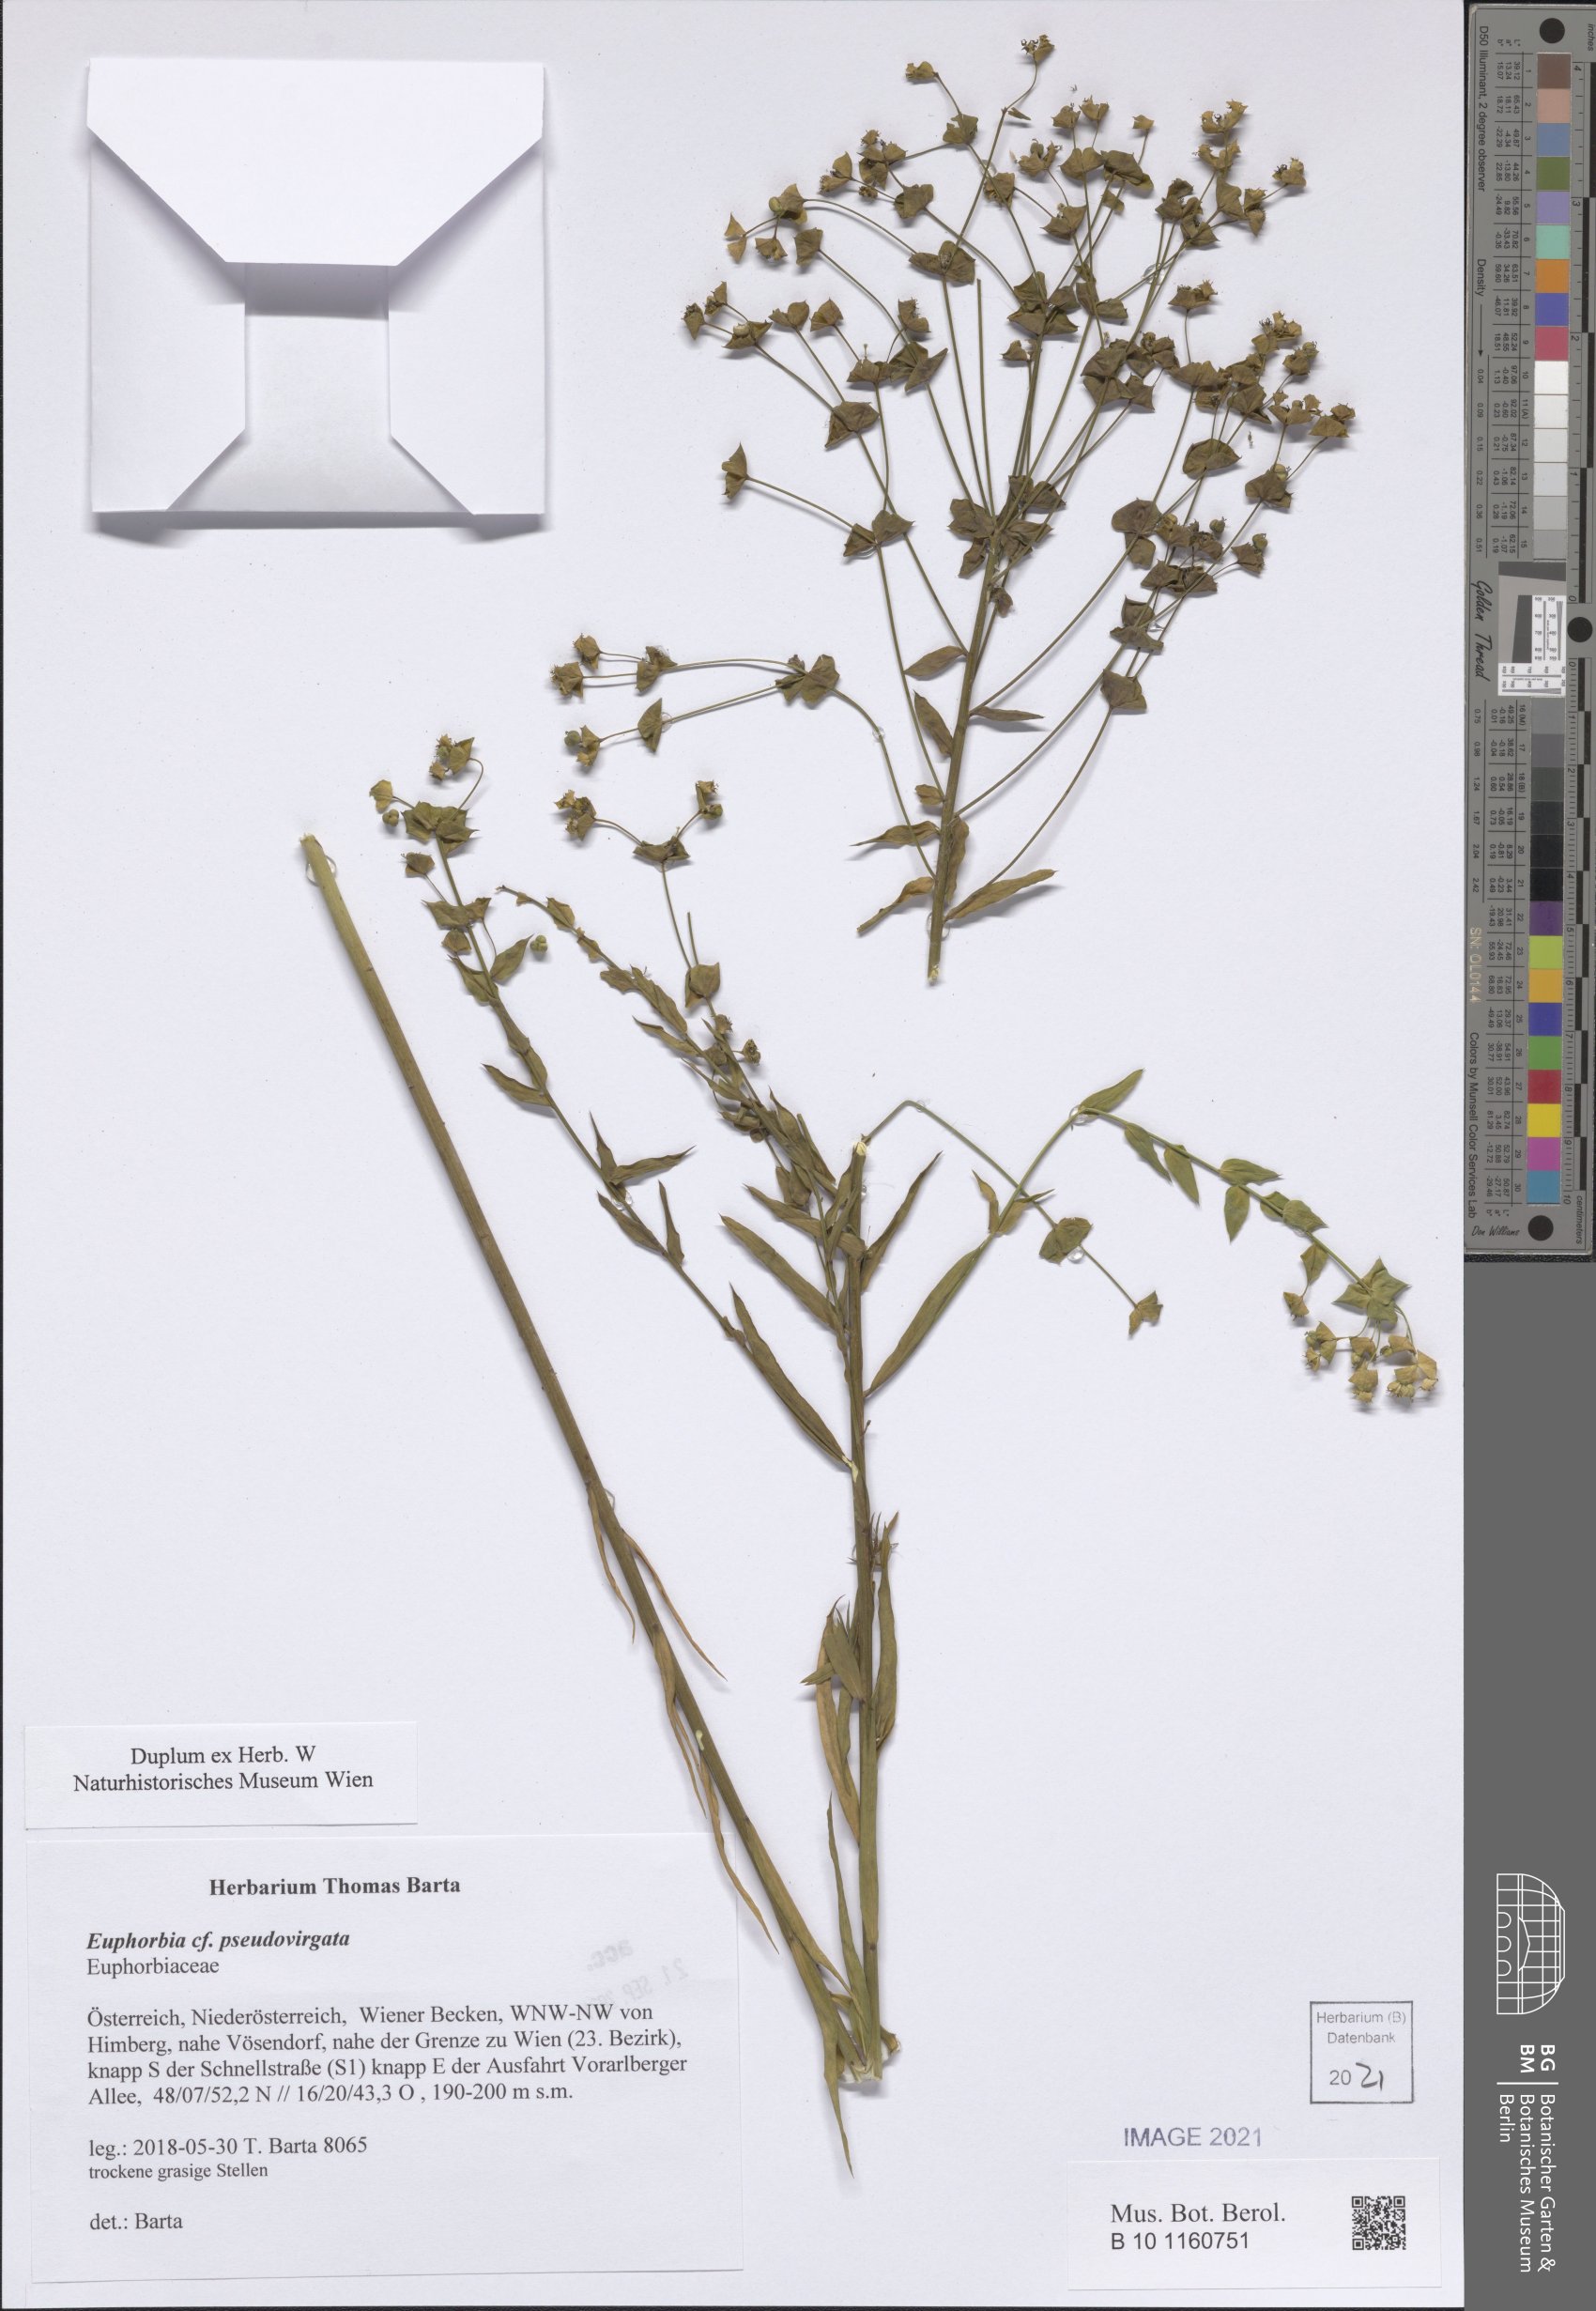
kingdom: Plantae
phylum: Tracheophyta
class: Magnoliopsida
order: Malpighiales
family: Euphorbiaceae
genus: Euphorbia
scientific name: Euphorbia virgata
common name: Leafy spurge
